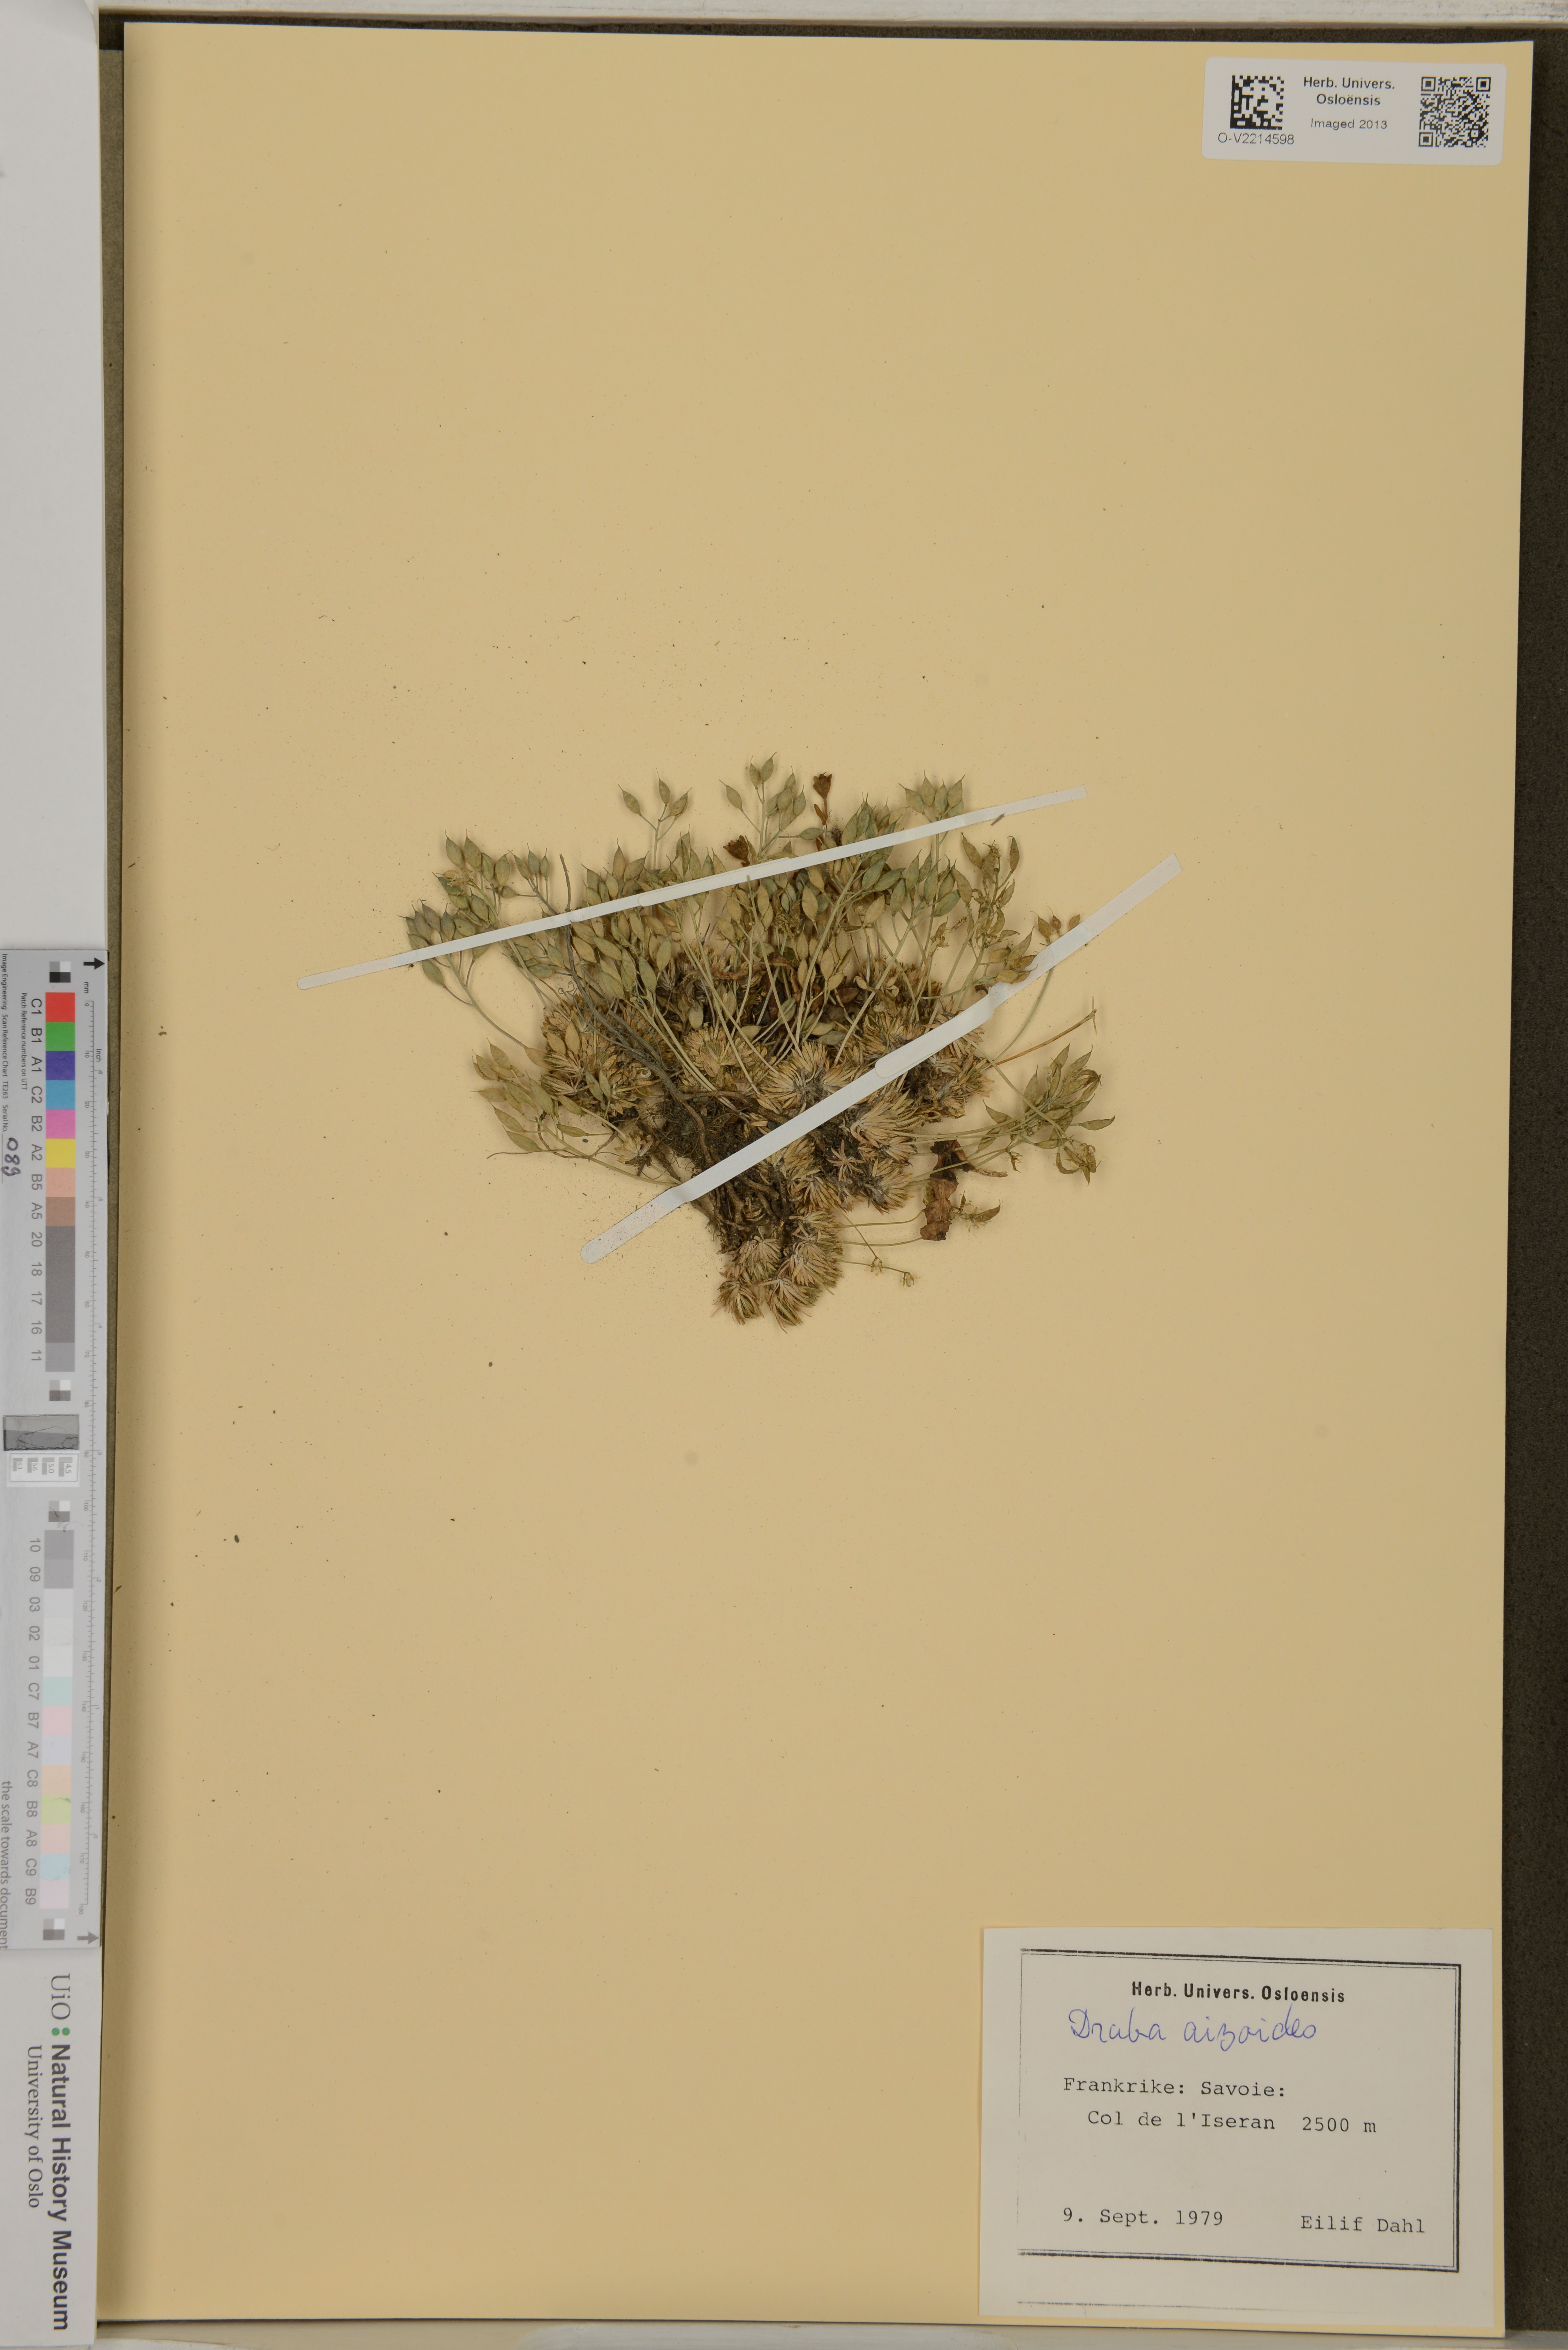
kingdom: Plantae
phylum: Tracheophyta
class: Magnoliopsida
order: Brassicales
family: Brassicaceae
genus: Draba
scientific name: Draba aizoides
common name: Yellow whitlowgrass
